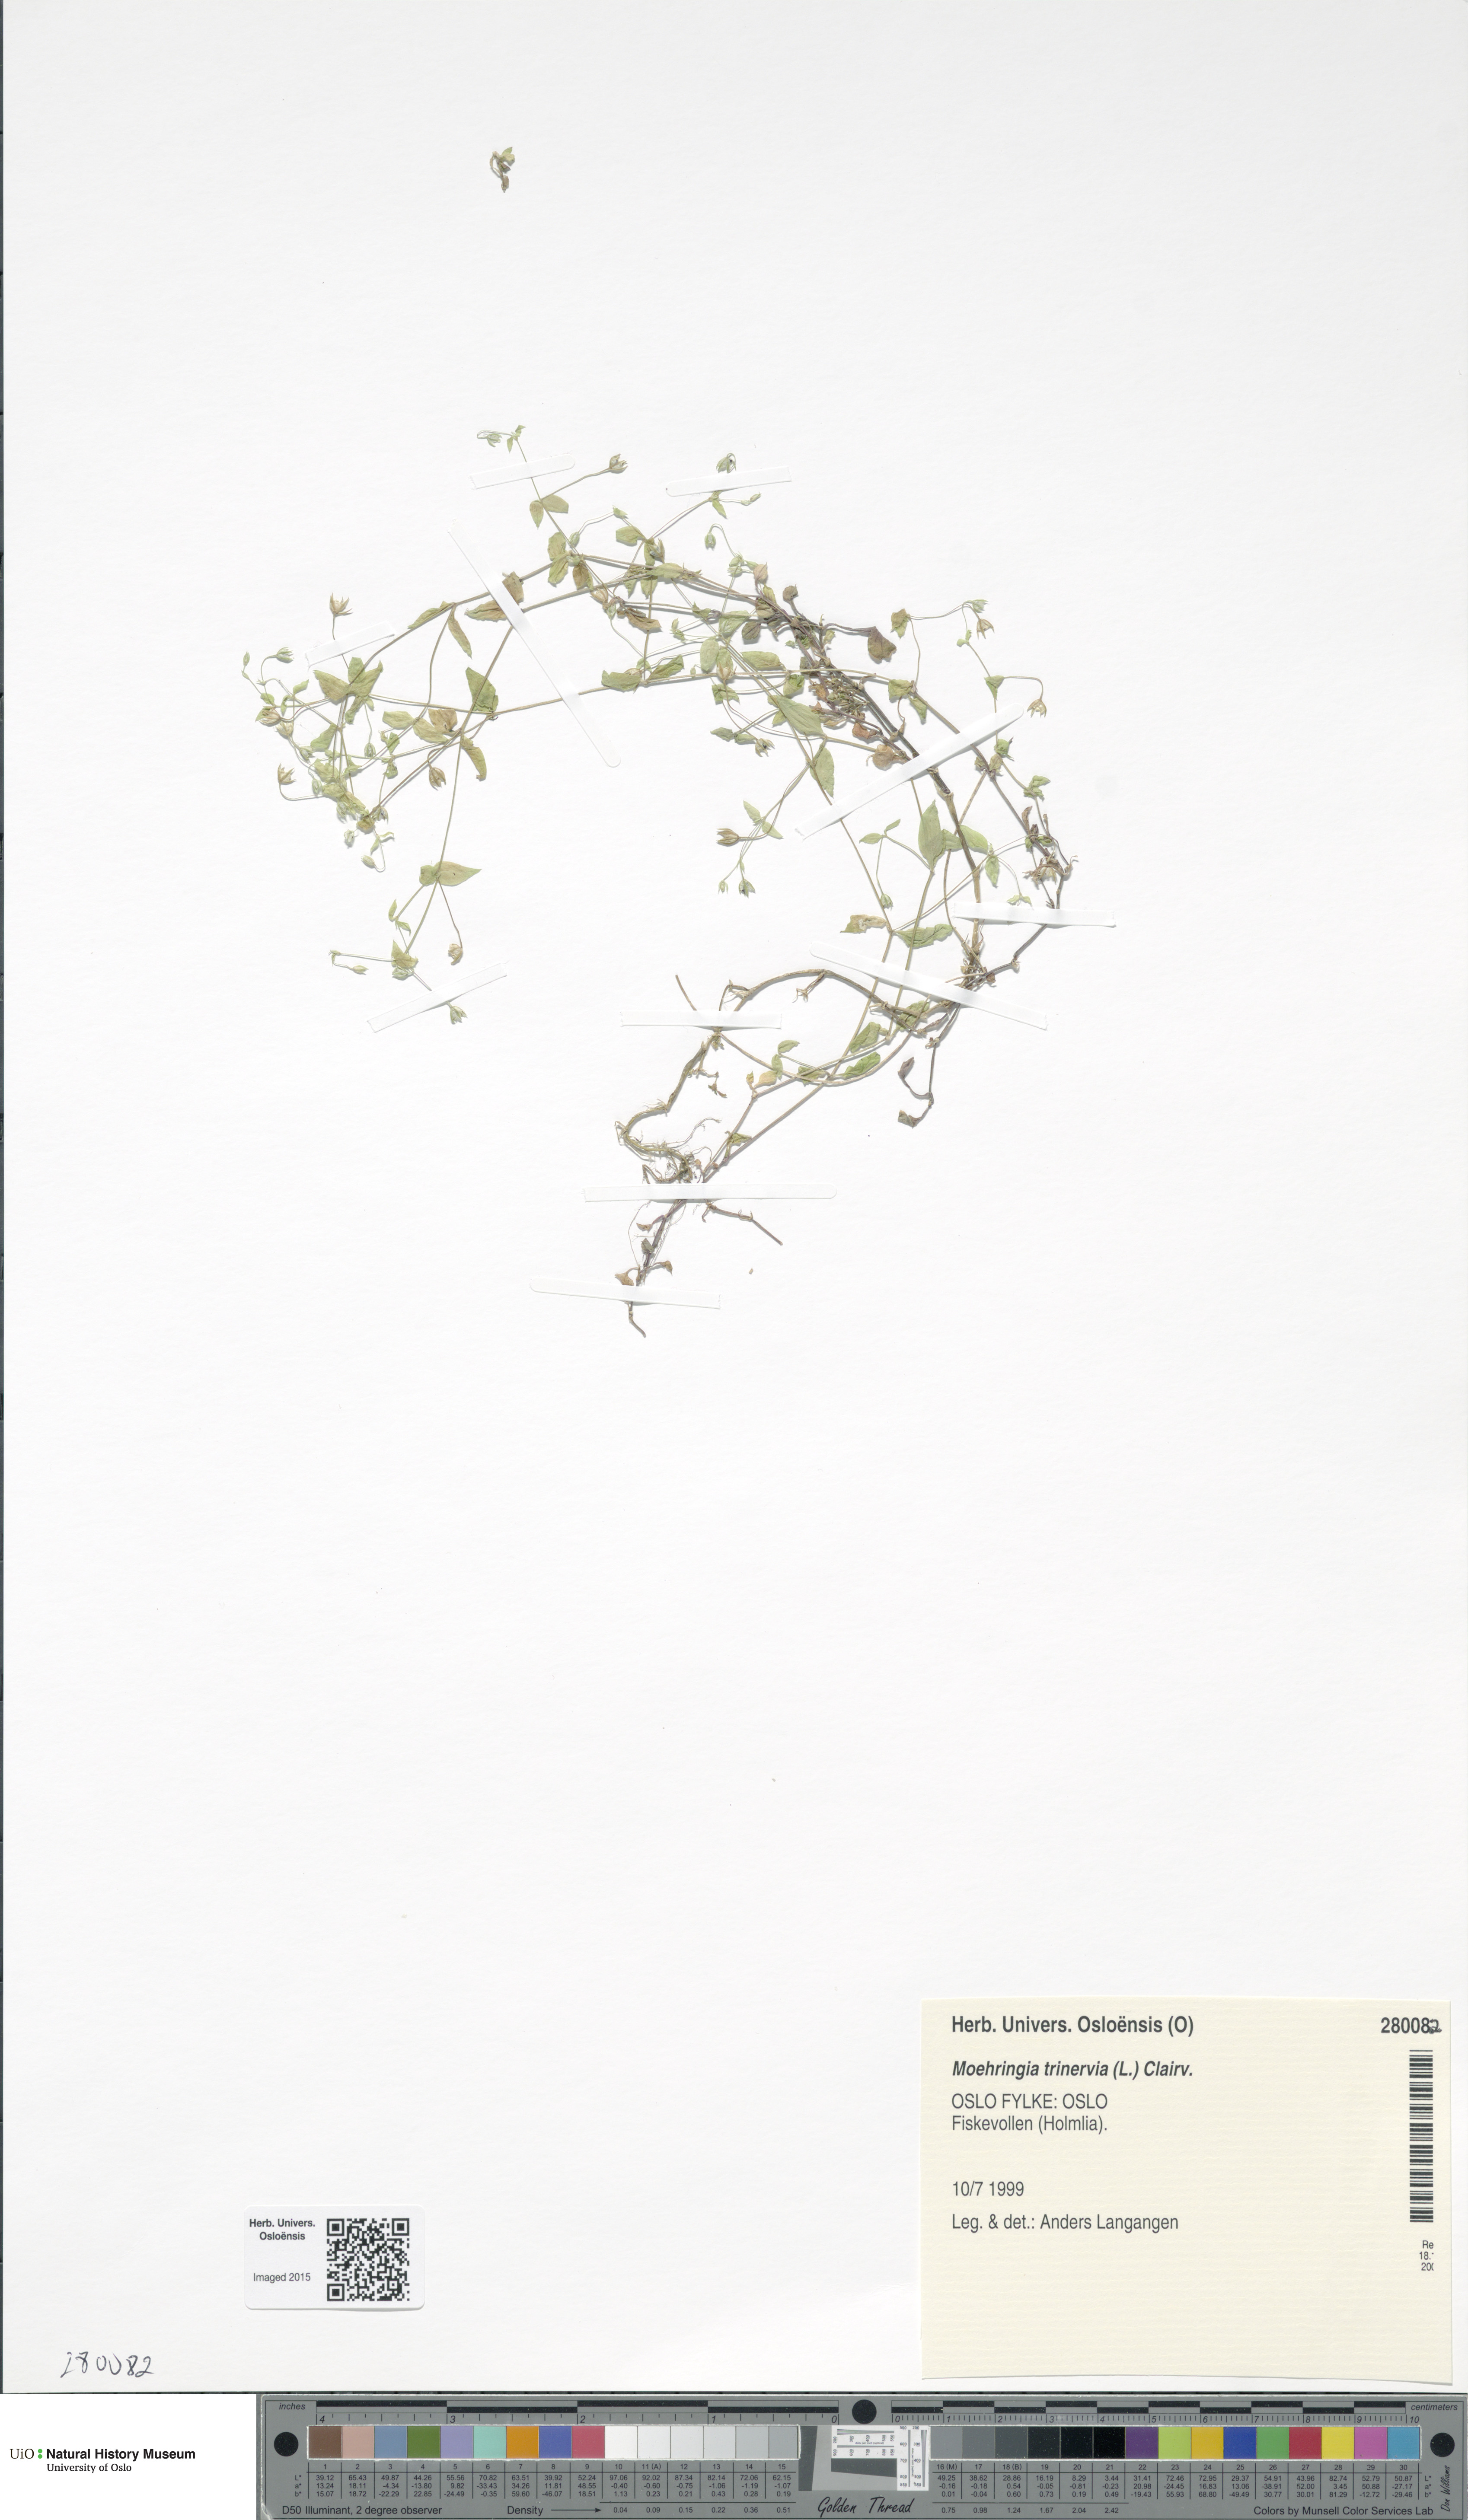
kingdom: Plantae
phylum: Tracheophyta
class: Magnoliopsida
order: Caryophyllales
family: Caryophyllaceae
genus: Moehringia
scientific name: Moehringia trinervia
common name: Three-nerved sandwort
